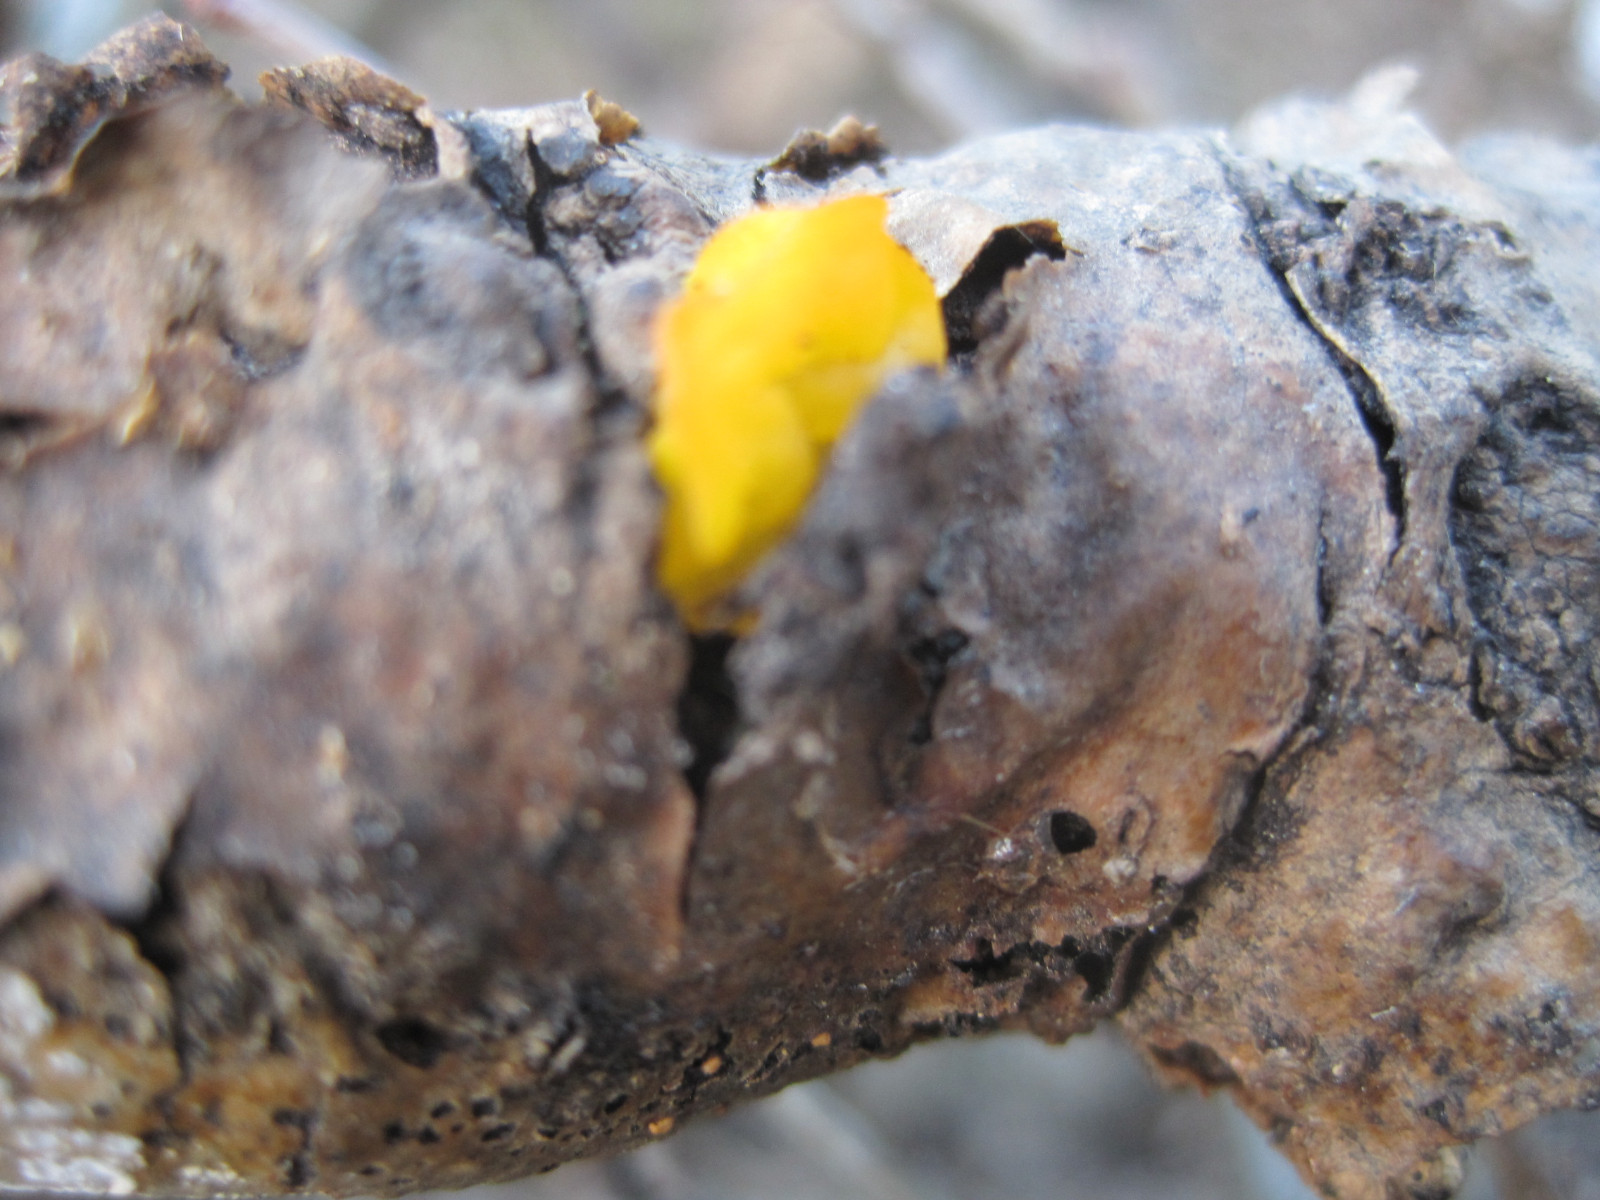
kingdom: Fungi
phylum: Basidiomycota
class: Tremellomycetes
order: Tremellales
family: Tremellaceae
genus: Tremella
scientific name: Tremella mesenterica
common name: gul bævresvamp
